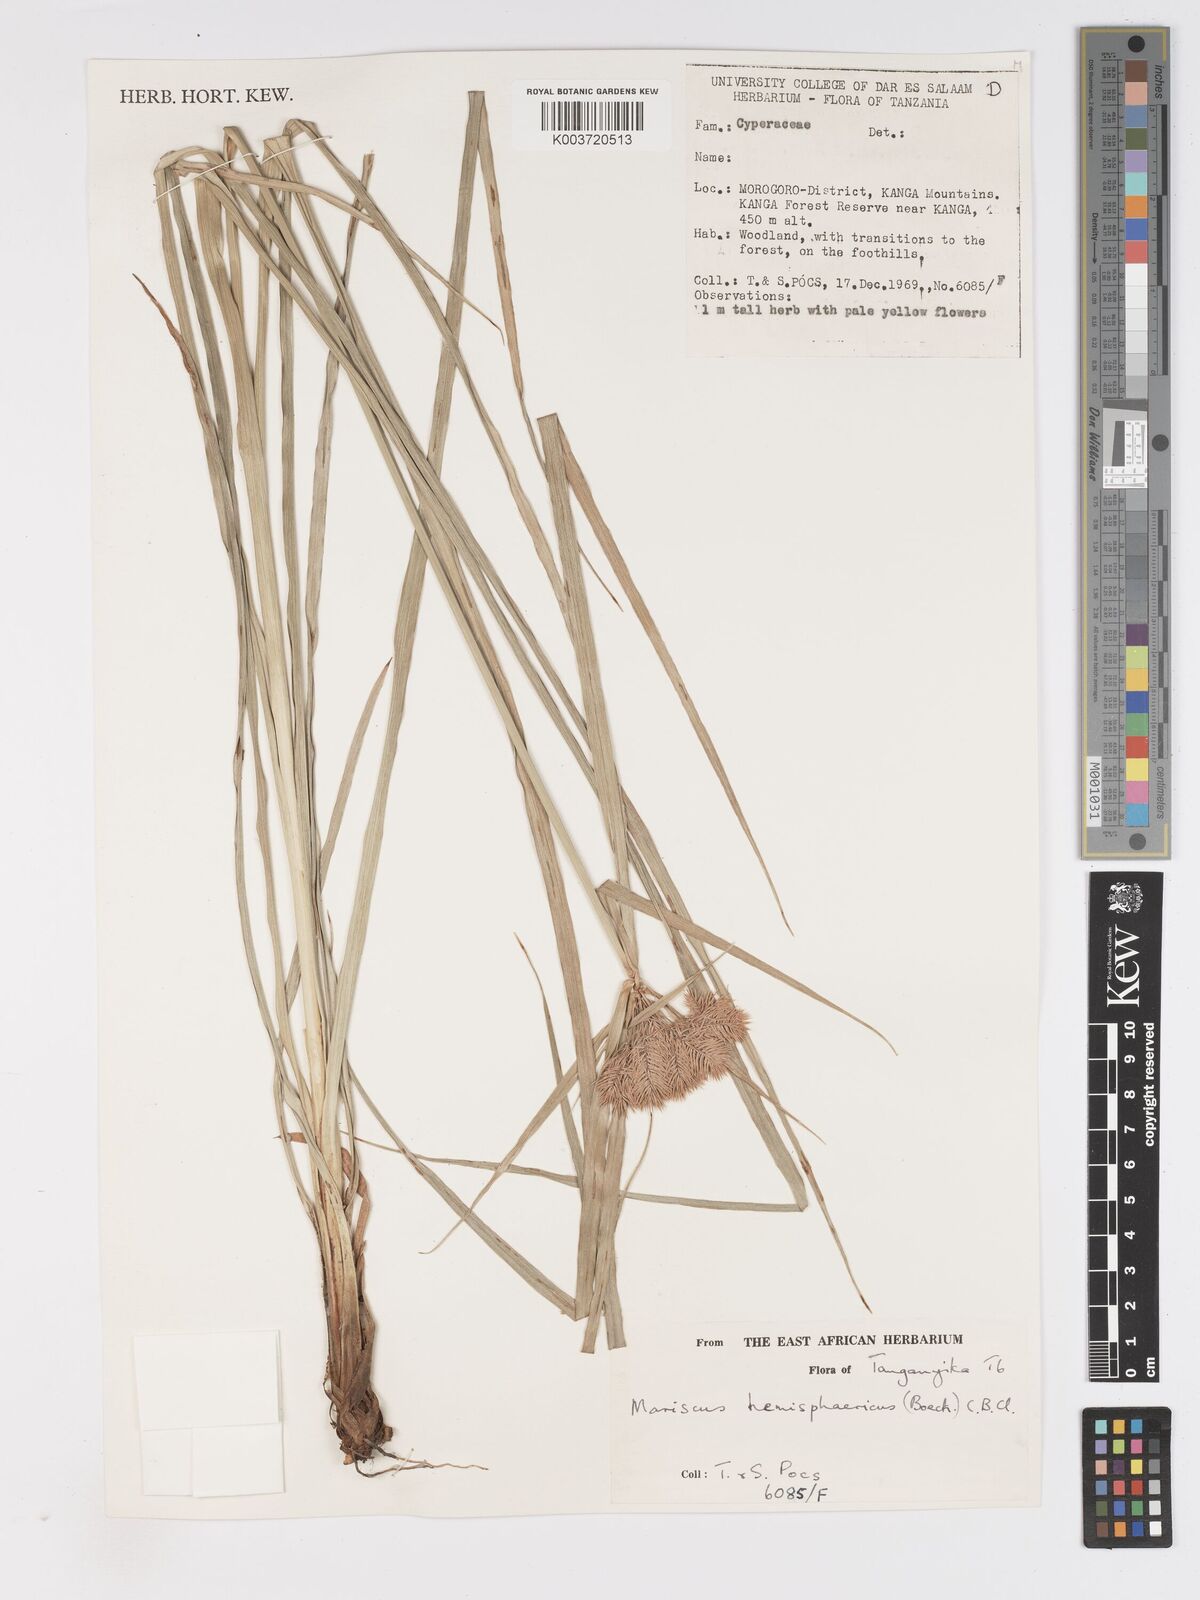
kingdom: Plantae
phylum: Tracheophyta
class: Liliopsida
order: Poales
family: Cyperaceae
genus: Cyperus
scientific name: Cyperus hemisphaericus
